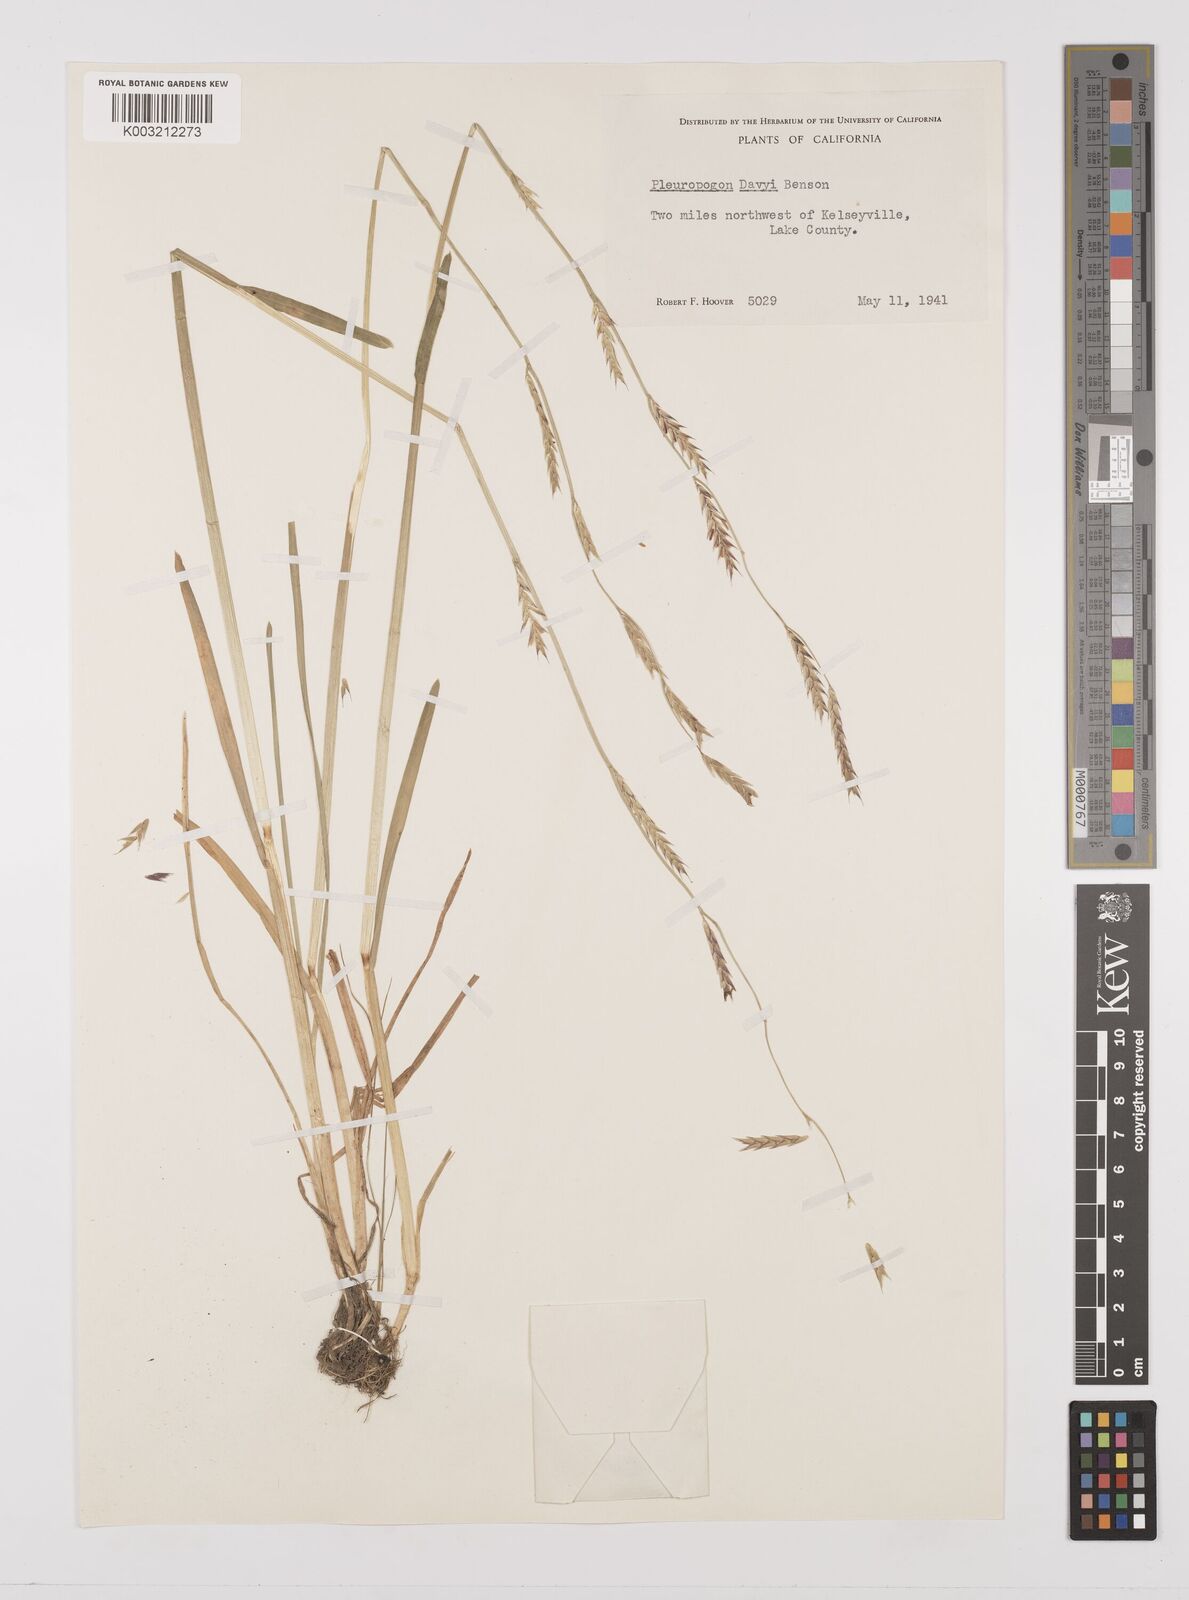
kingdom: Plantae
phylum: Tracheophyta
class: Liliopsida
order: Poales
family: Poaceae
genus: Pleuropogon
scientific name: Pleuropogon davyi
